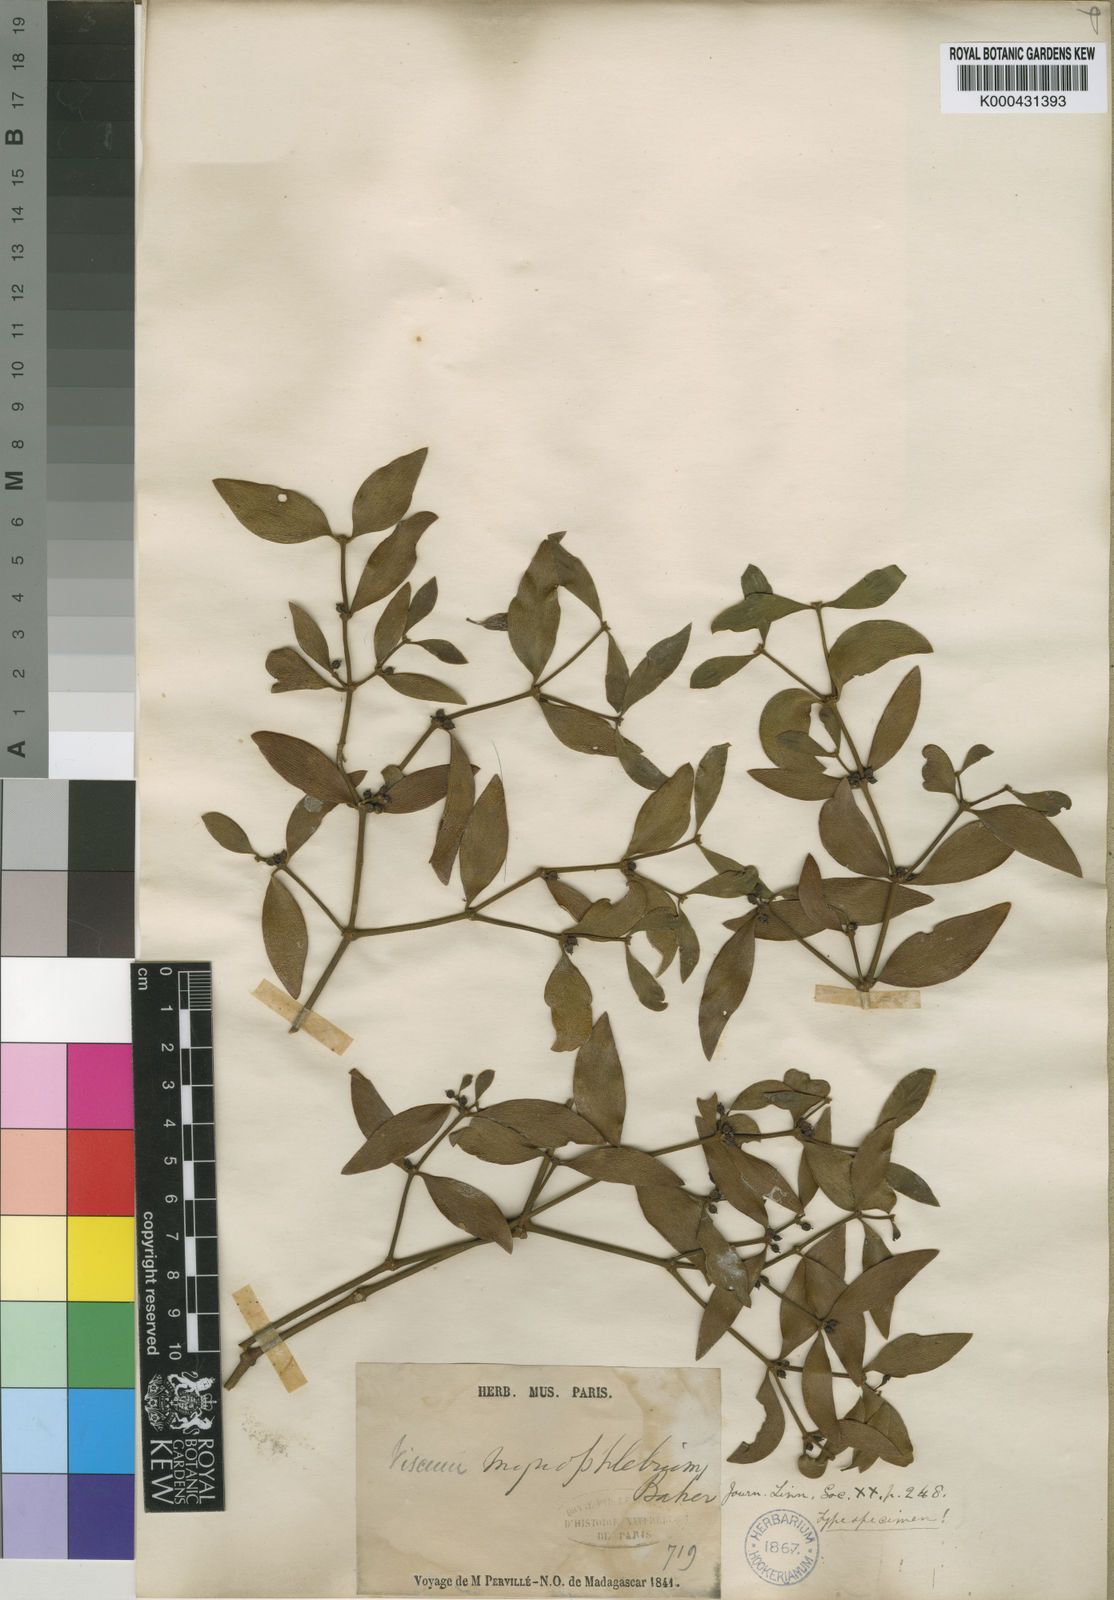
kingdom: Plantae
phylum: Tracheophyta
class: Magnoliopsida
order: Santalales
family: Viscaceae
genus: Viscum
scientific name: Viscum myriophlebium
